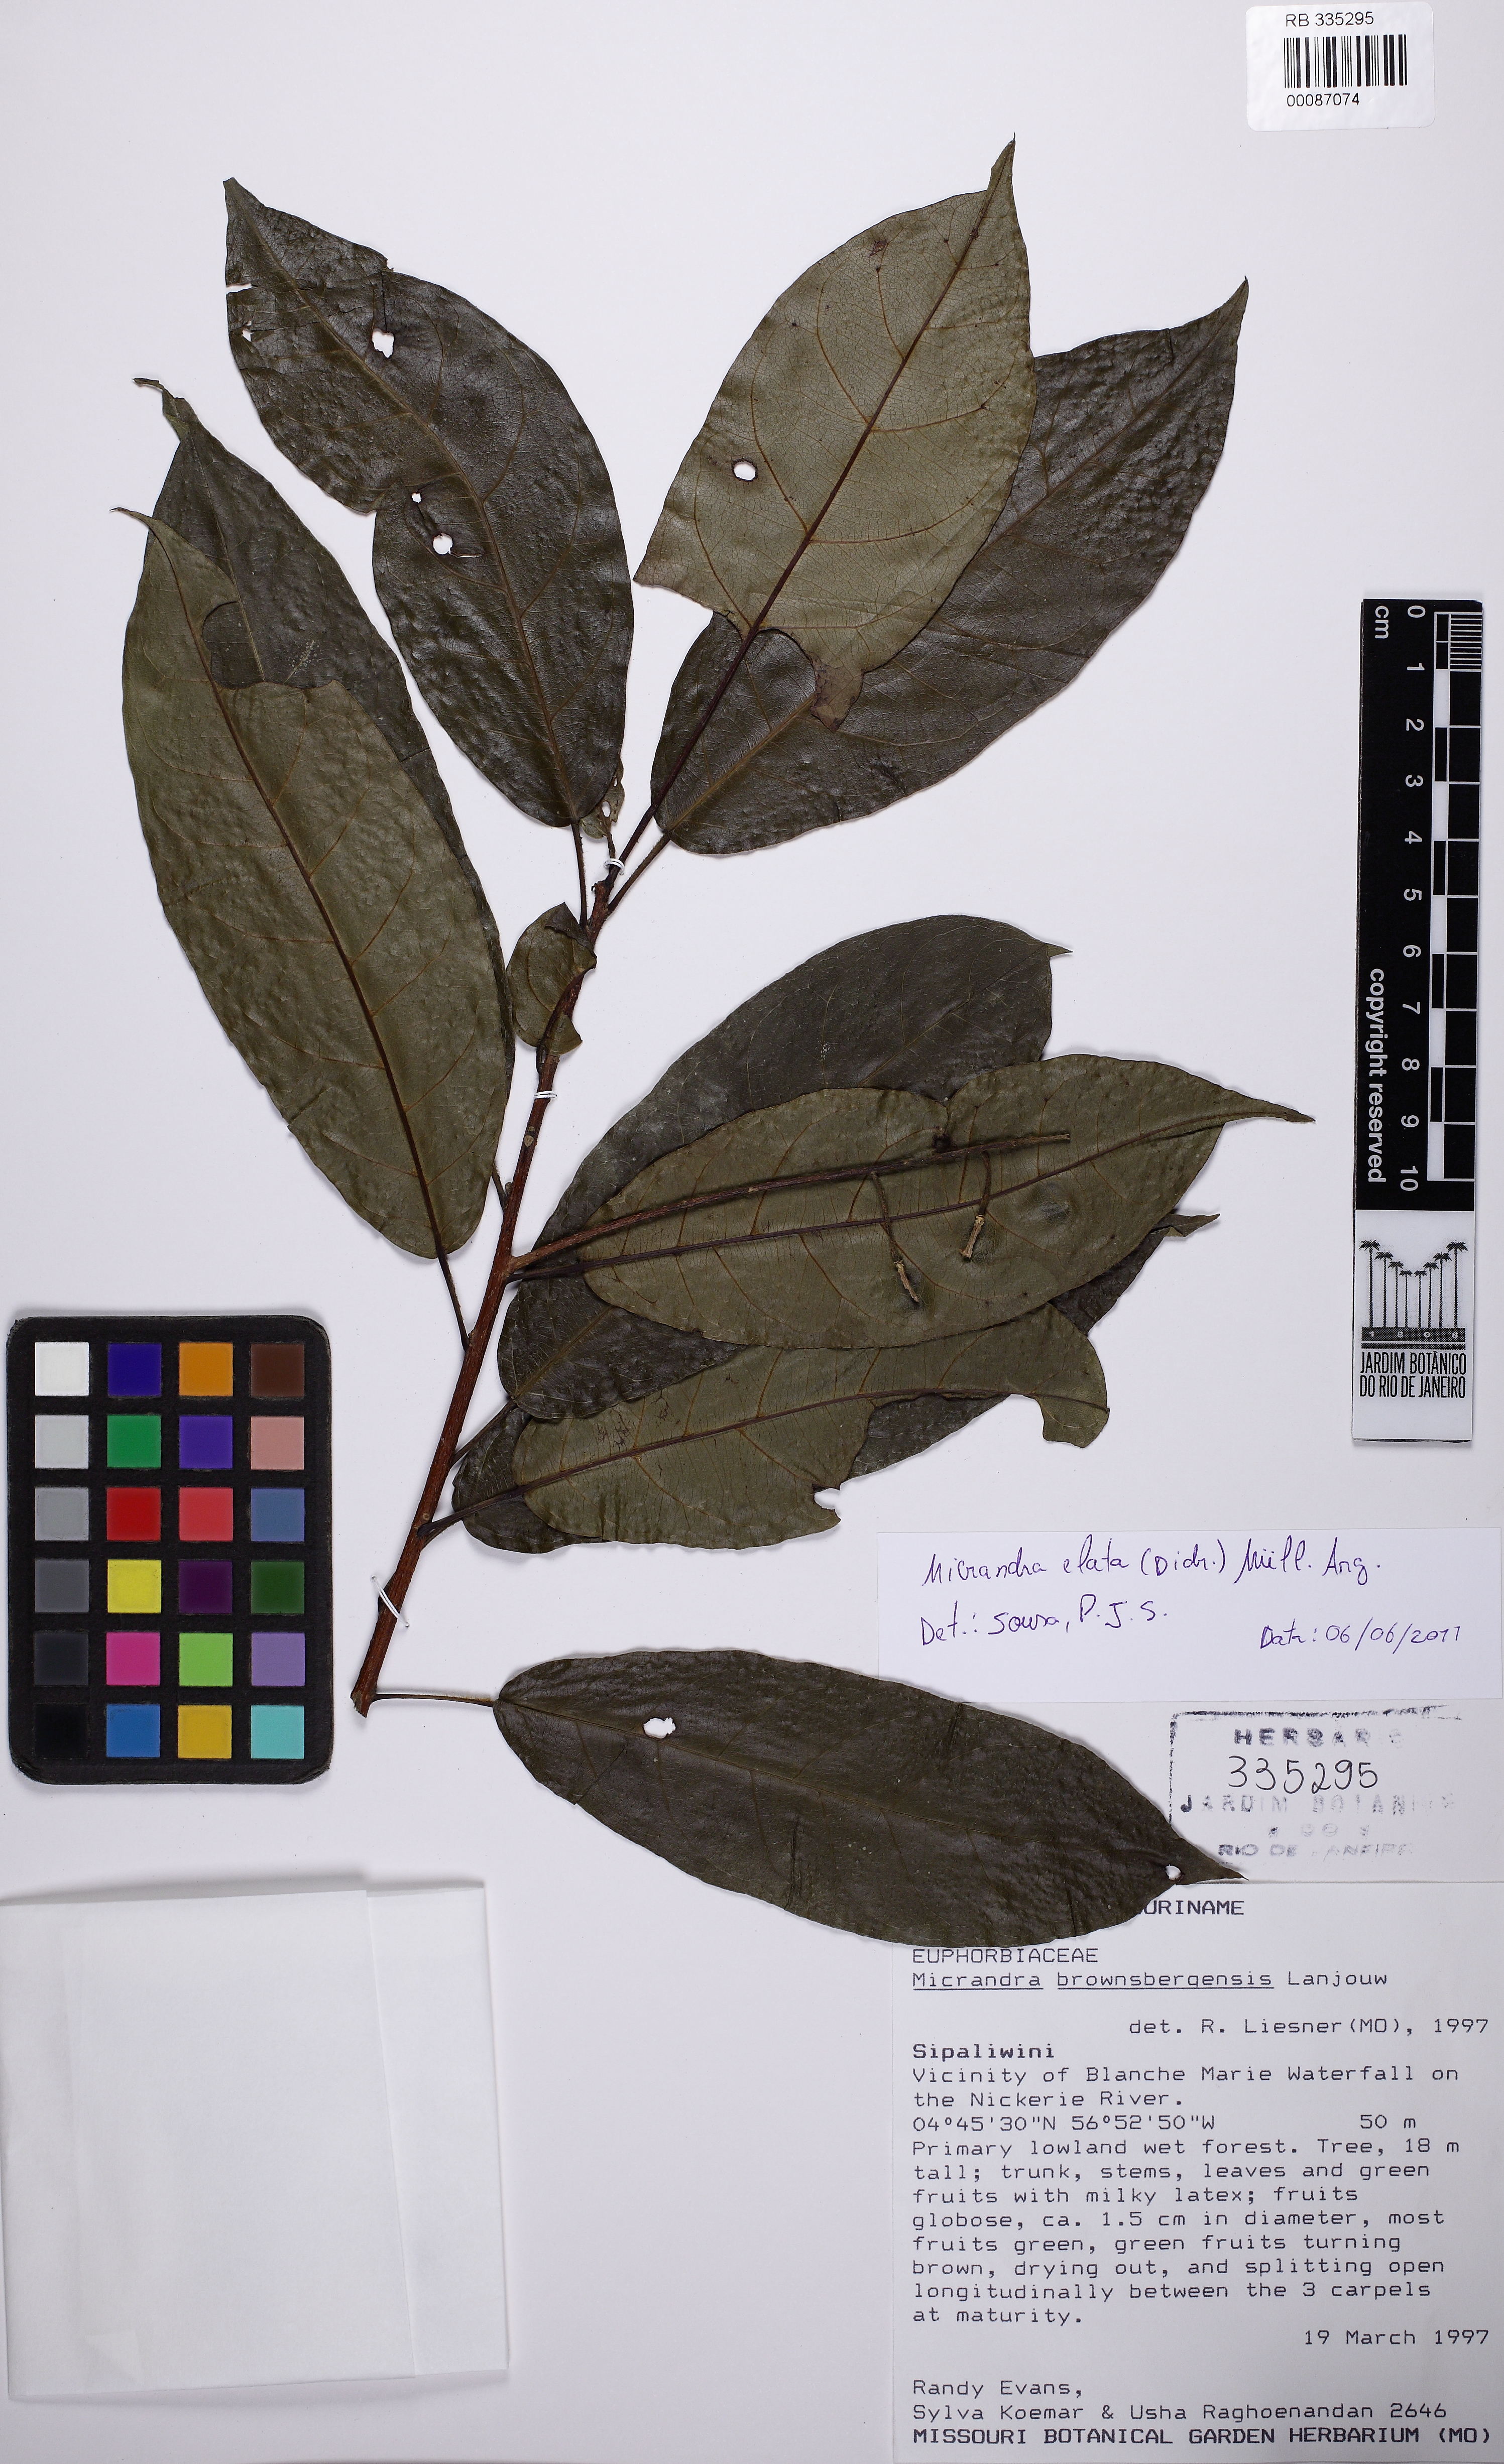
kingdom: Plantae
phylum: Tracheophyta
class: Magnoliopsida
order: Malpighiales
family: Euphorbiaceae
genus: Micrandra
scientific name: Micrandra elata
